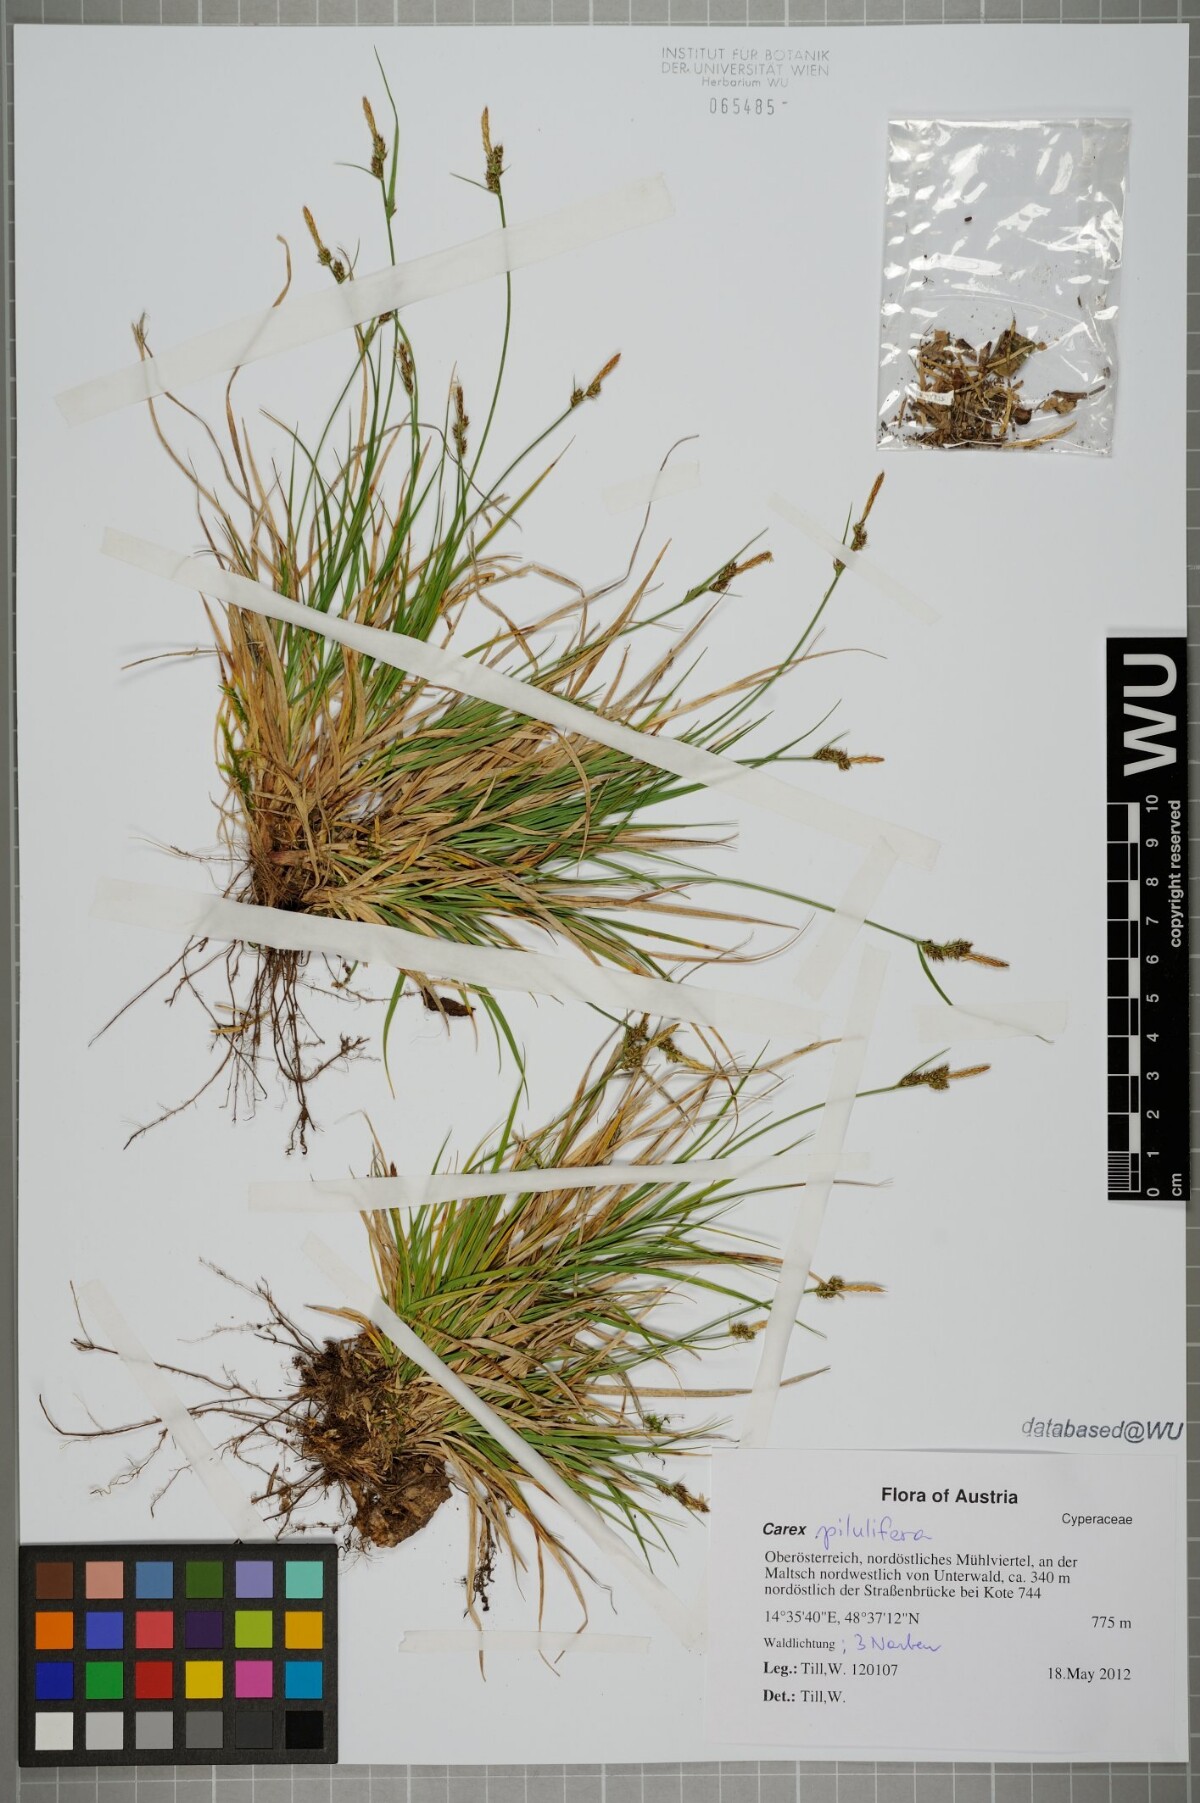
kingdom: Plantae
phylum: Tracheophyta
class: Liliopsida
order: Poales
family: Cyperaceae
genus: Carex
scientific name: Carex pilulifera
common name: Pill sedge
